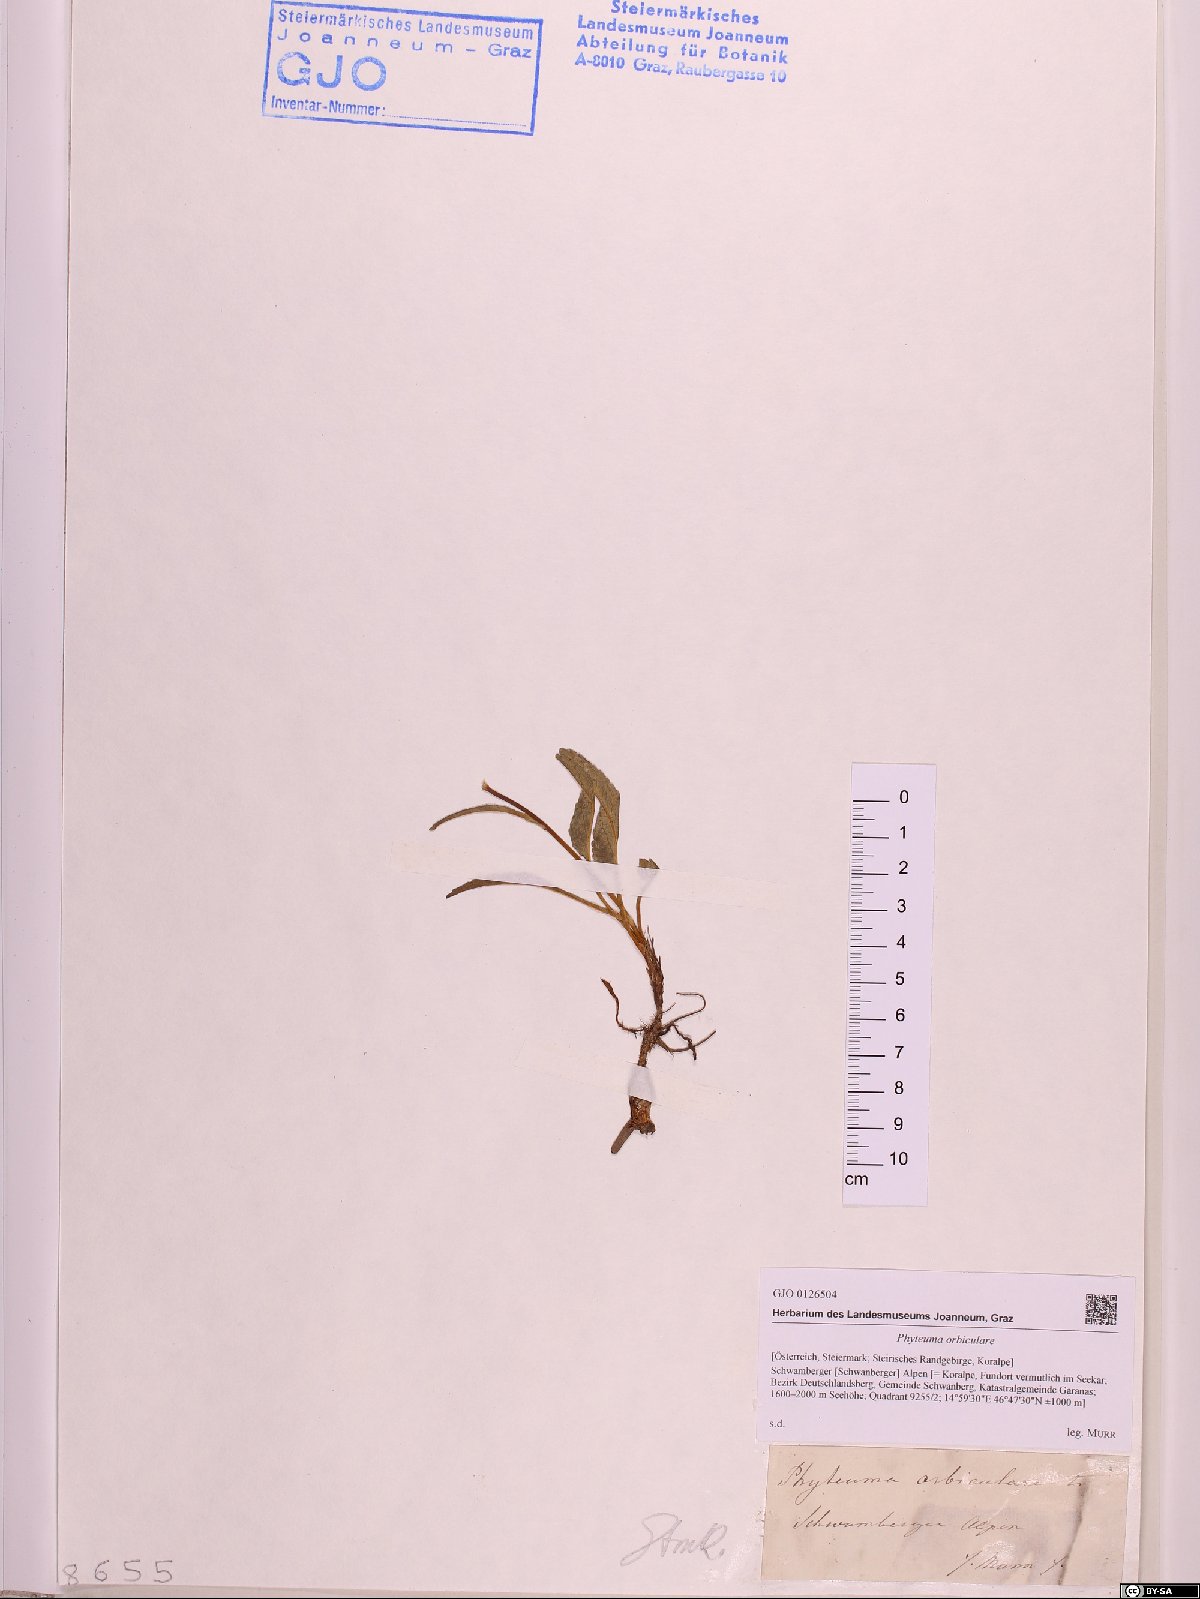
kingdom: Plantae
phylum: Tracheophyta
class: Magnoliopsida
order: Asterales
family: Campanulaceae
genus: Phyteuma
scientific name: Phyteuma orbiculare
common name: Round-headed rampion
